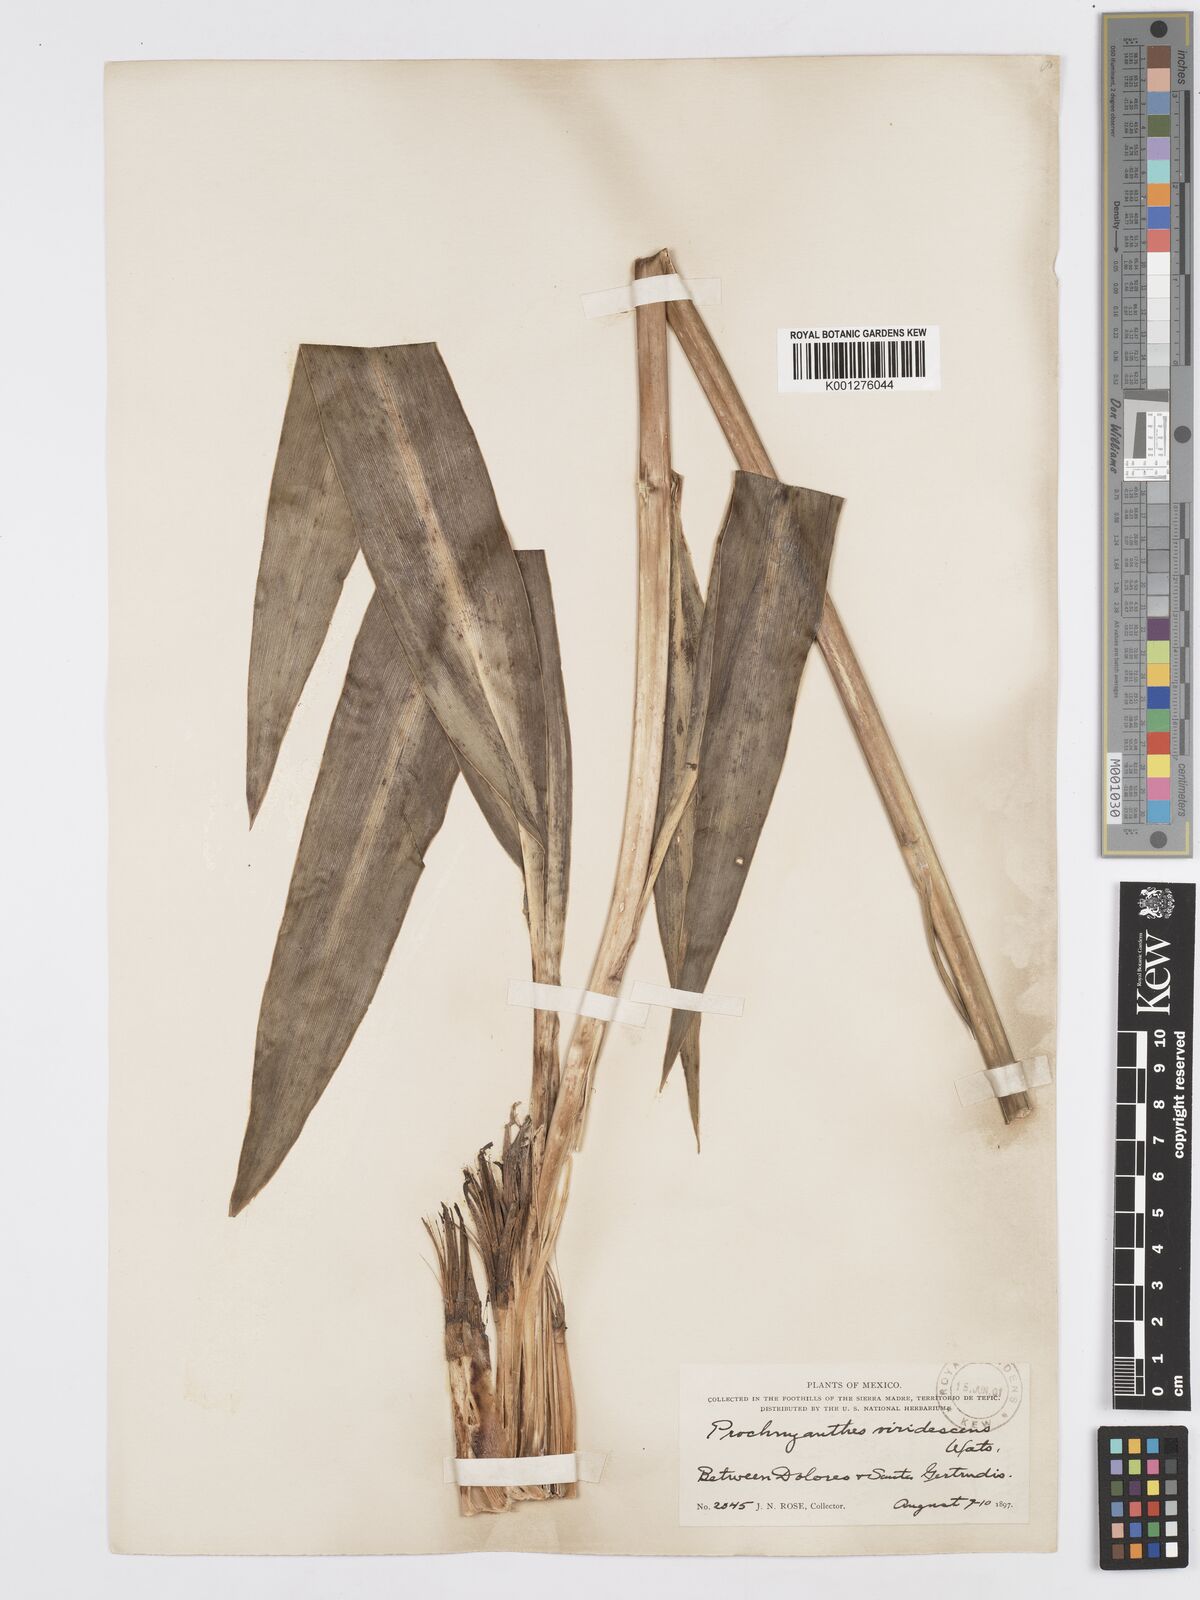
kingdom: Plantae
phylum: Tracheophyta
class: Liliopsida
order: Asparagales
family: Asparagaceae
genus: Agave
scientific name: Agave
